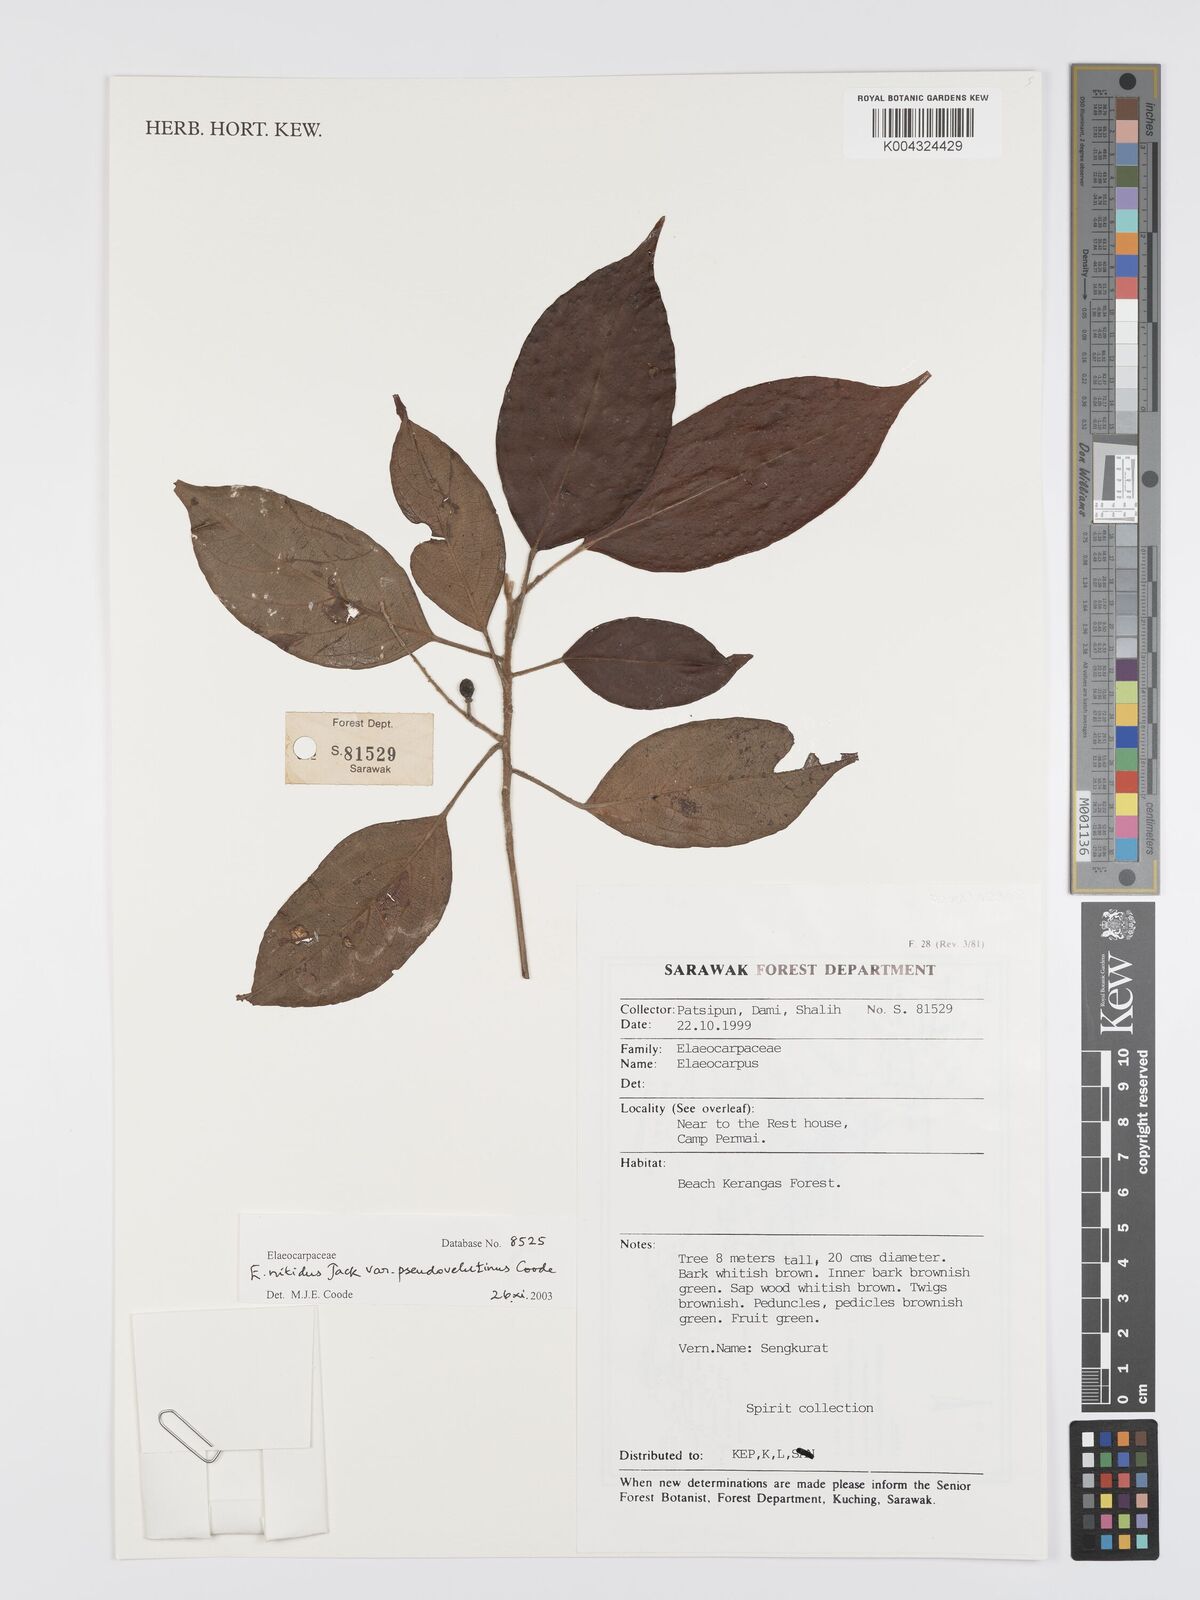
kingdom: Plantae
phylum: Tracheophyta
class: Magnoliopsida
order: Oxalidales
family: Elaeocarpaceae
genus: Elaeocarpus
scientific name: Elaeocarpus nitidus
